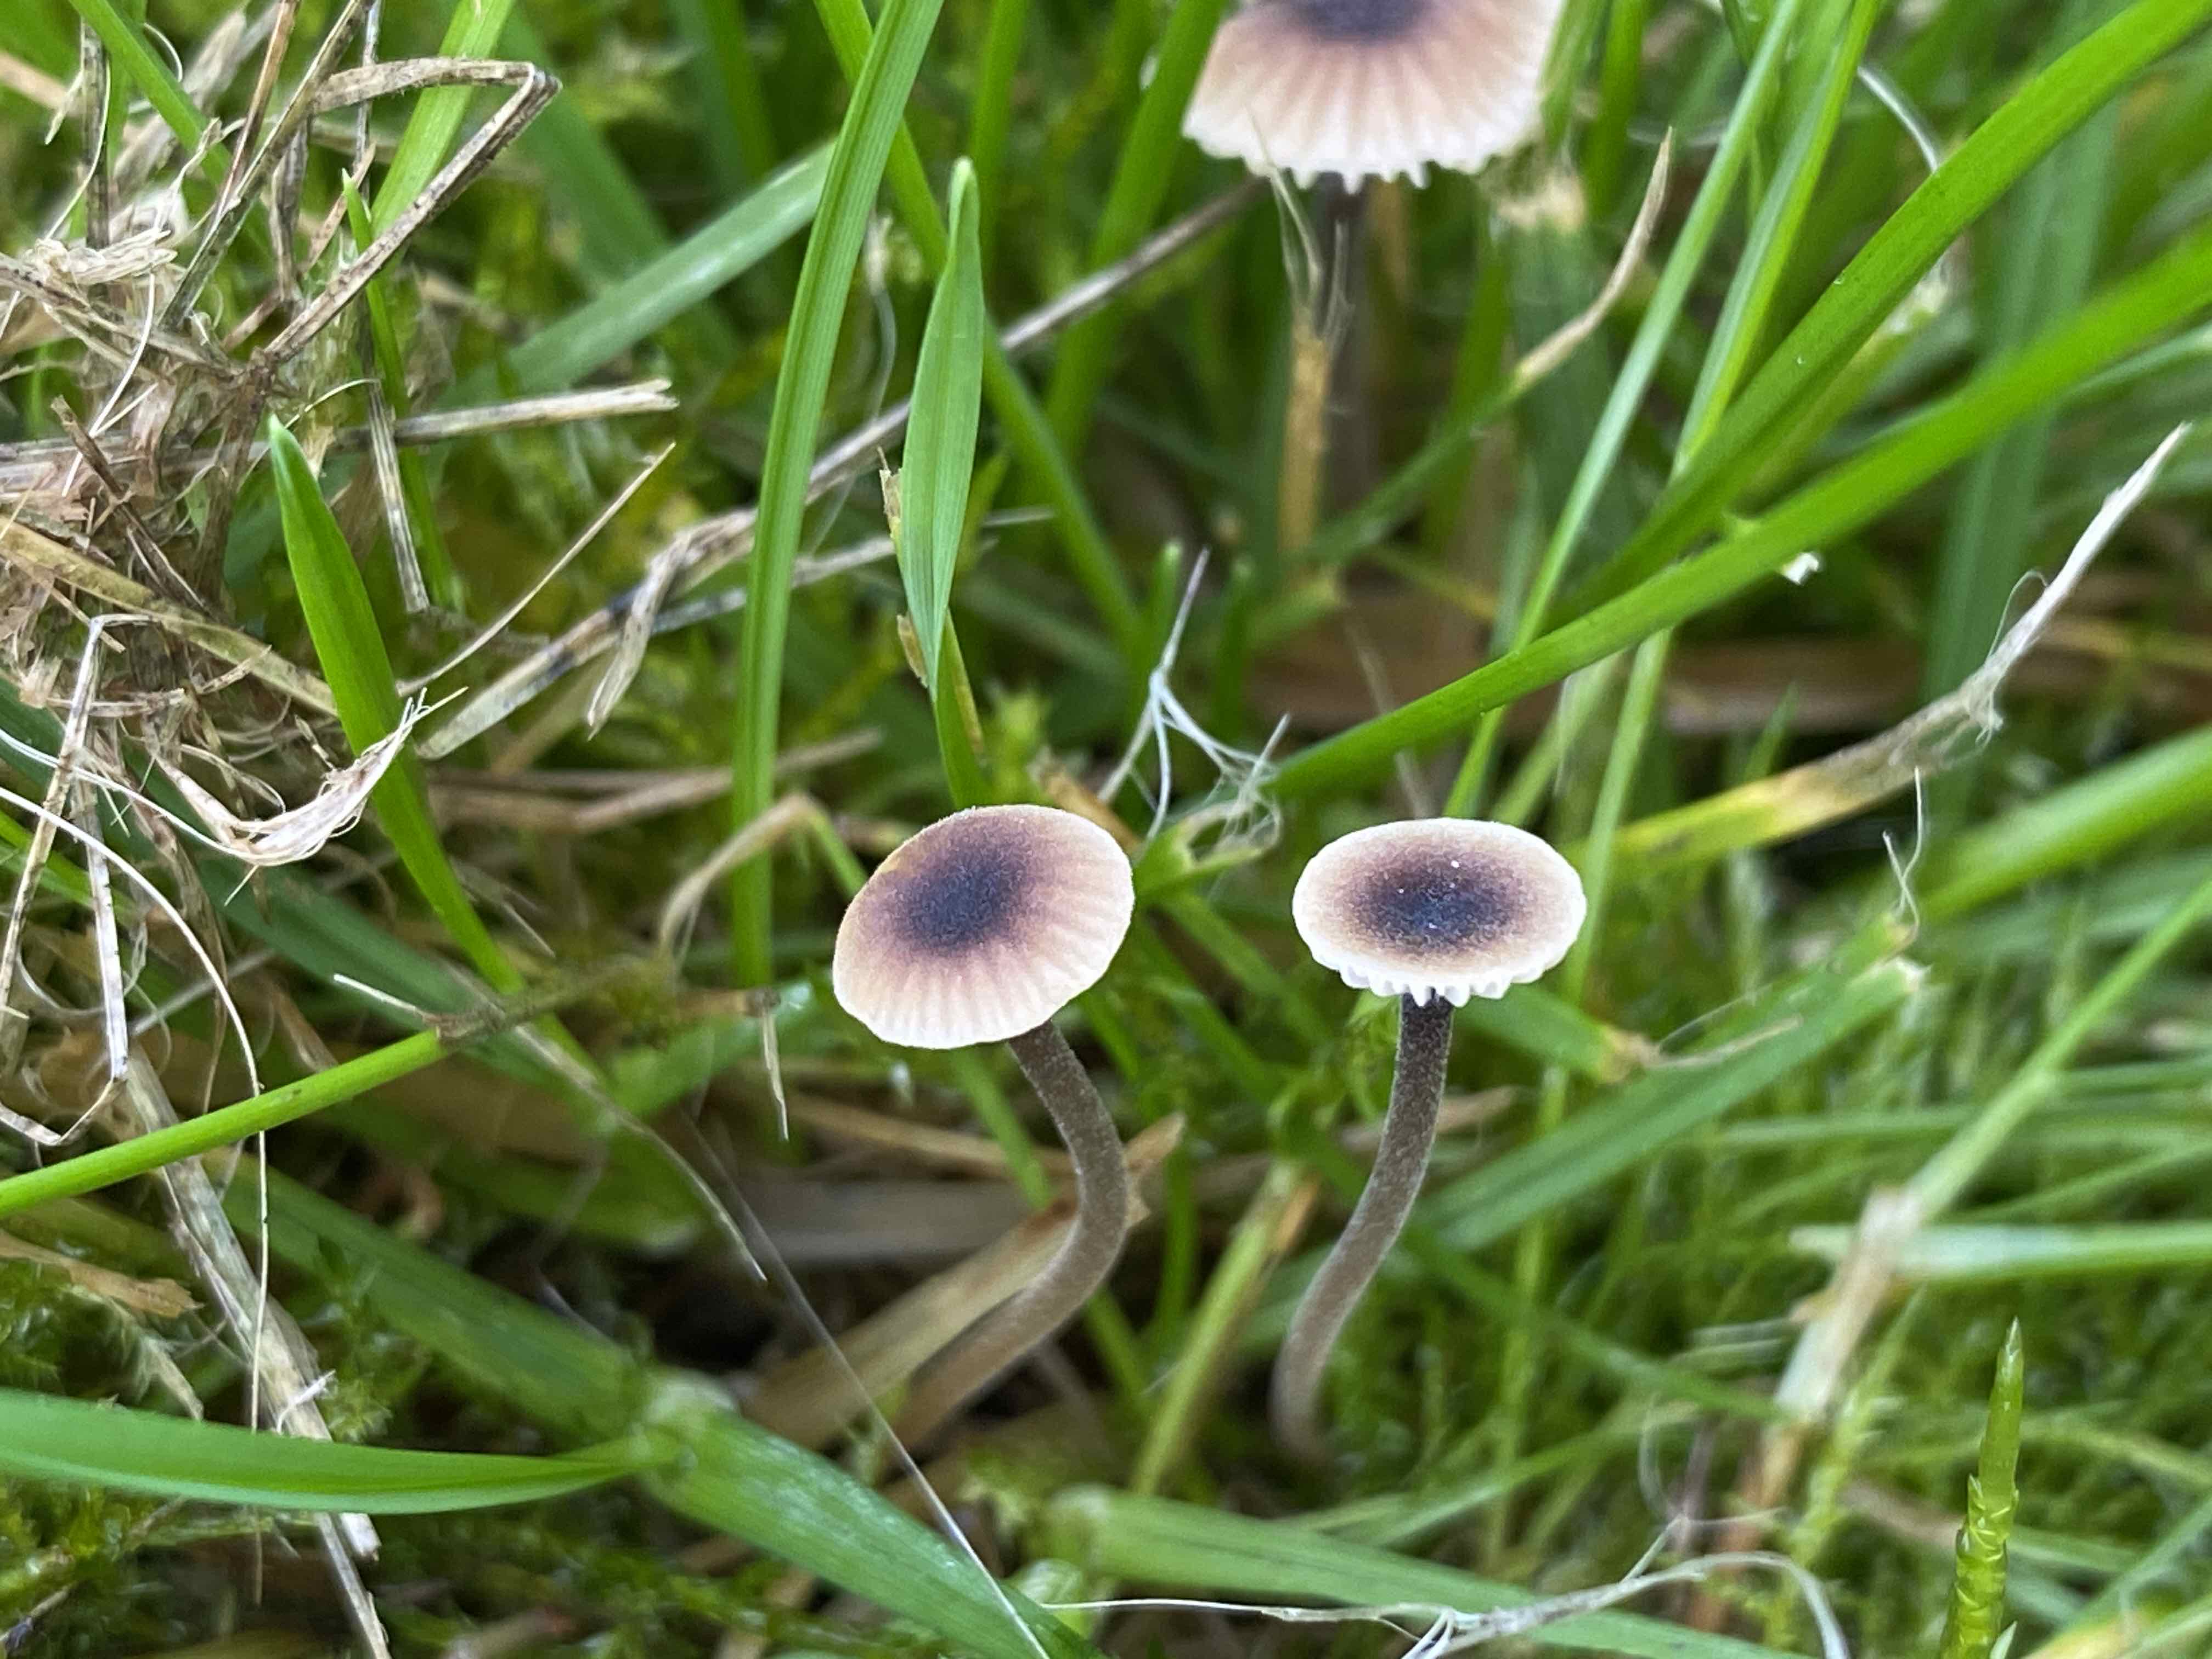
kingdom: Fungi
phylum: Basidiomycota
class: Agaricomycetes
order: Hymenochaetales
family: Rickenellaceae
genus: Rickenella
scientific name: Rickenella swartzii
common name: finstokket mosnavlehat
